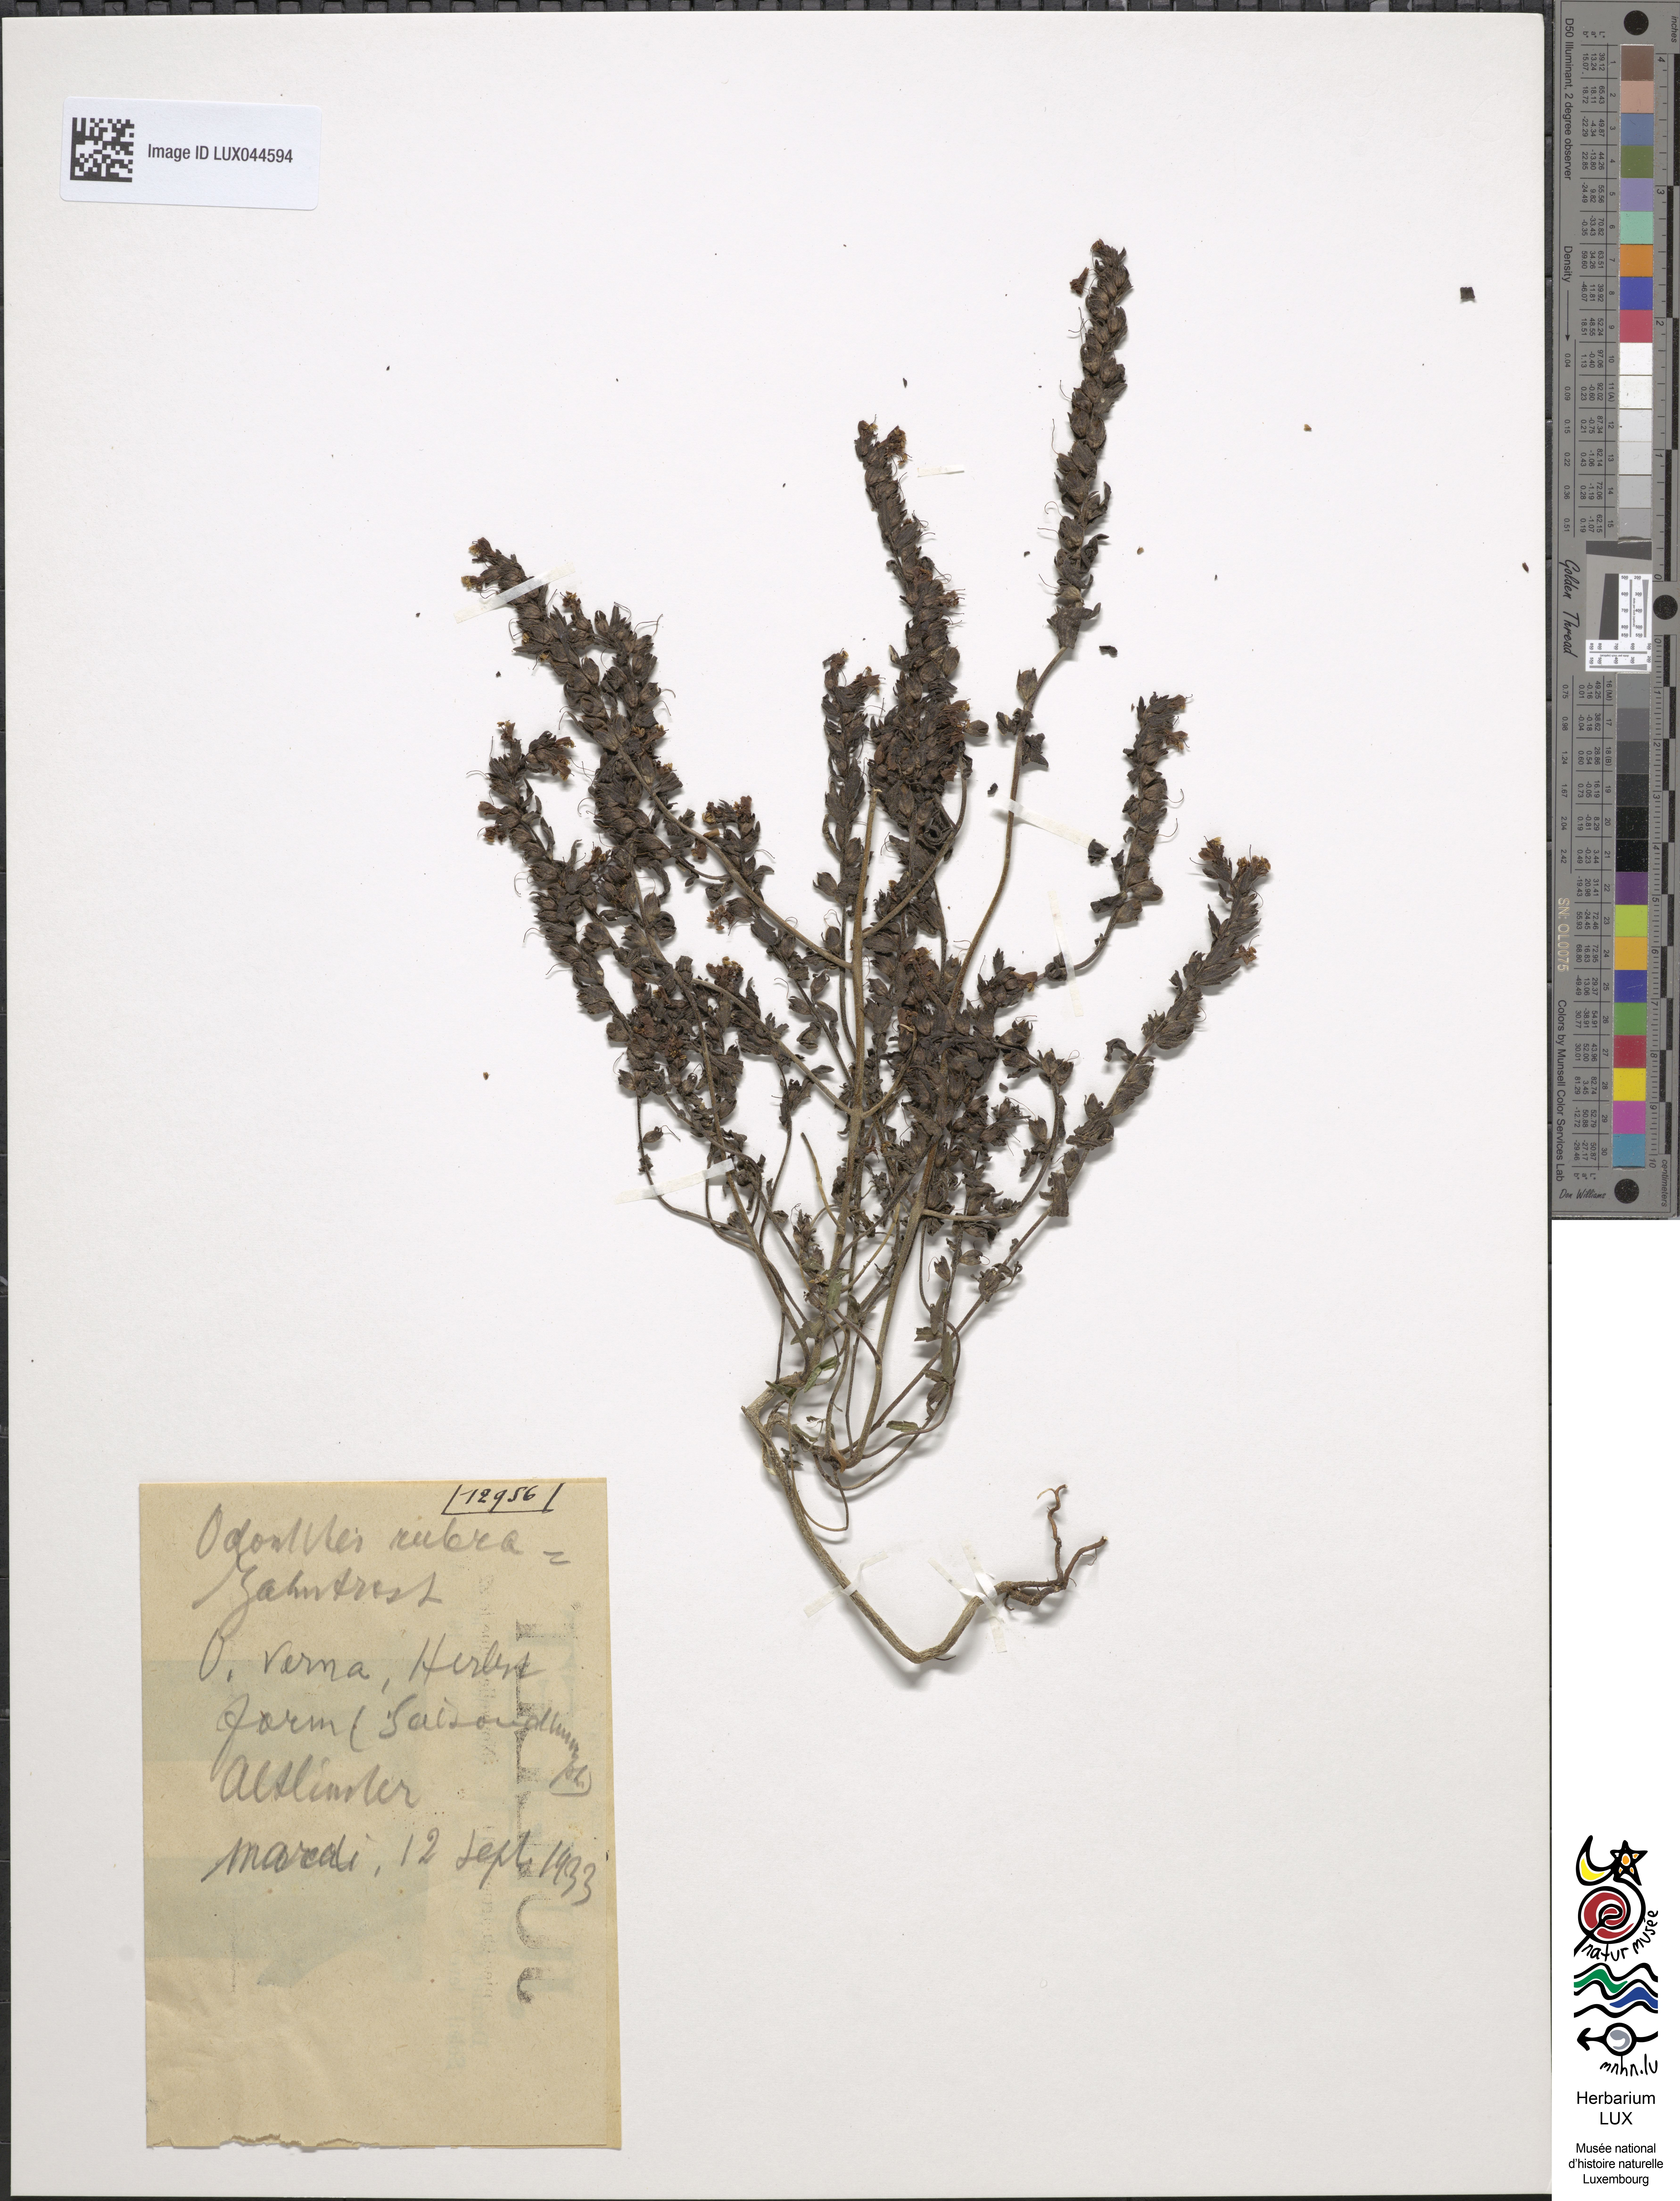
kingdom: Plantae
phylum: Tracheophyta
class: Magnoliopsida
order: Lamiales
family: Orobanchaceae
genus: Odontites
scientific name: Odontites vernus
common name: Red bartsia
